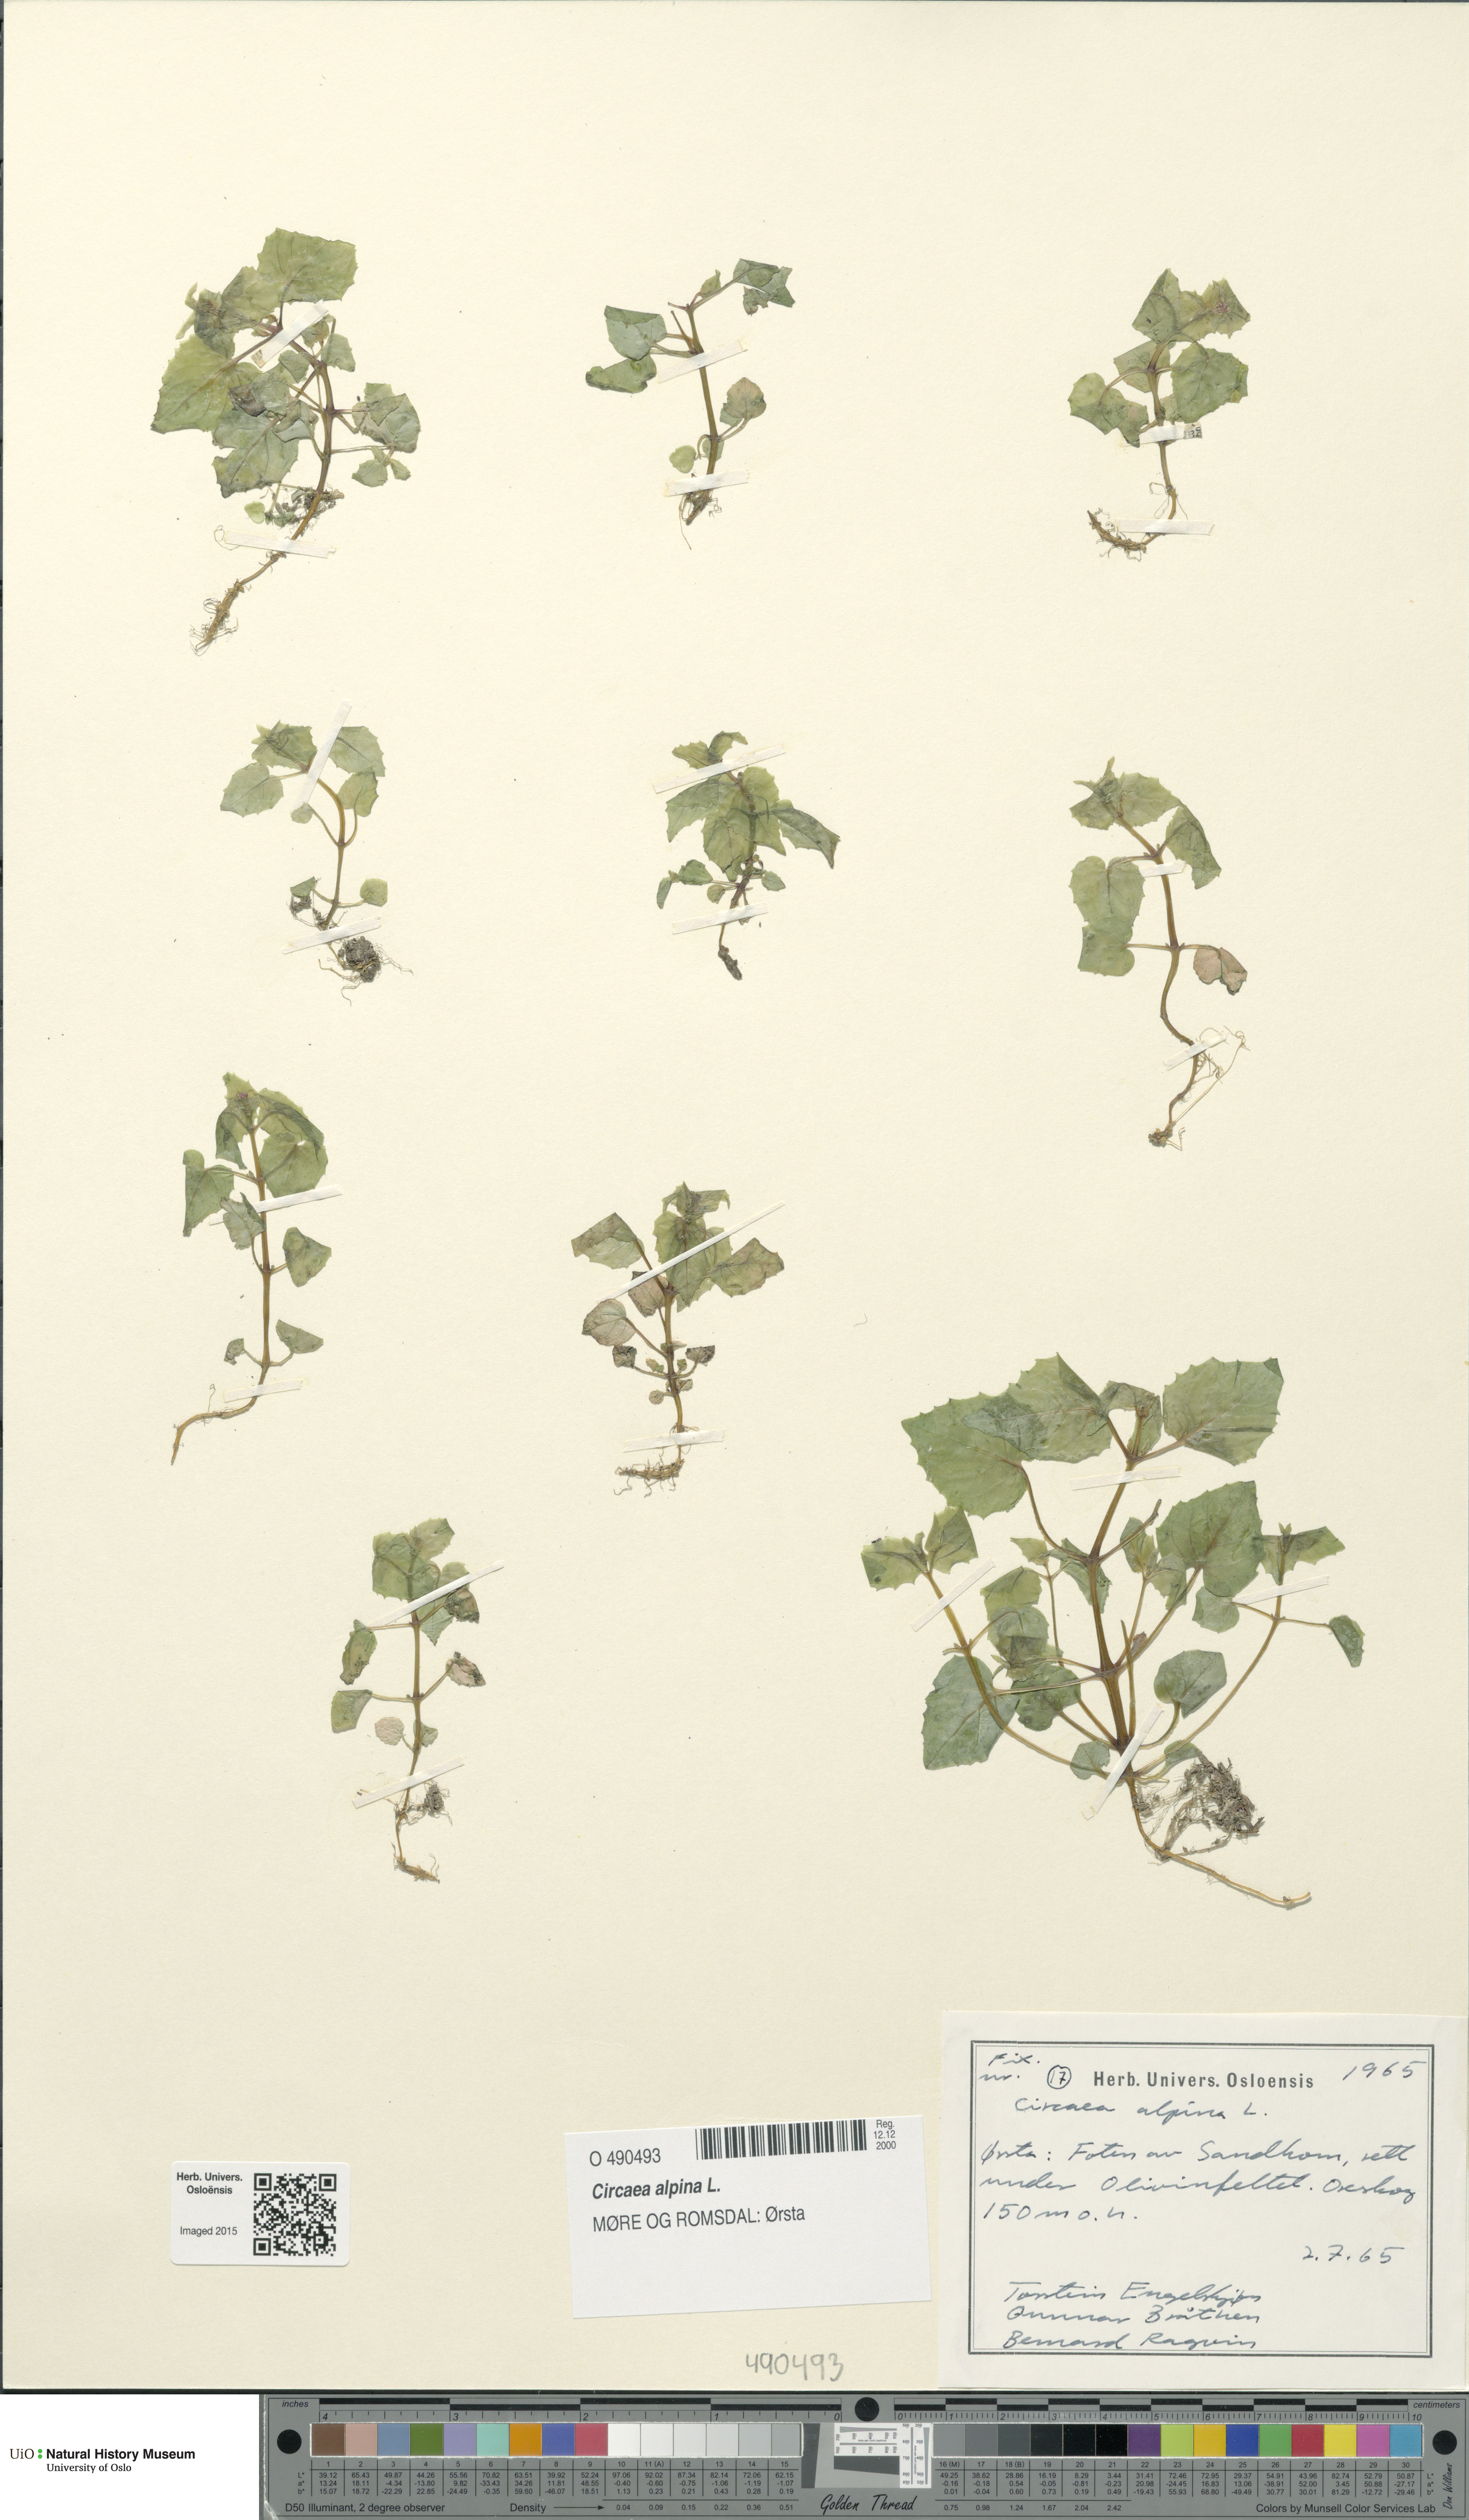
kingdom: Plantae
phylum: Tracheophyta
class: Magnoliopsida
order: Myrtales
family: Onagraceae
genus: Circaea
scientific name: Circaea alpina
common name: Alpine enchanter's-nightshade
